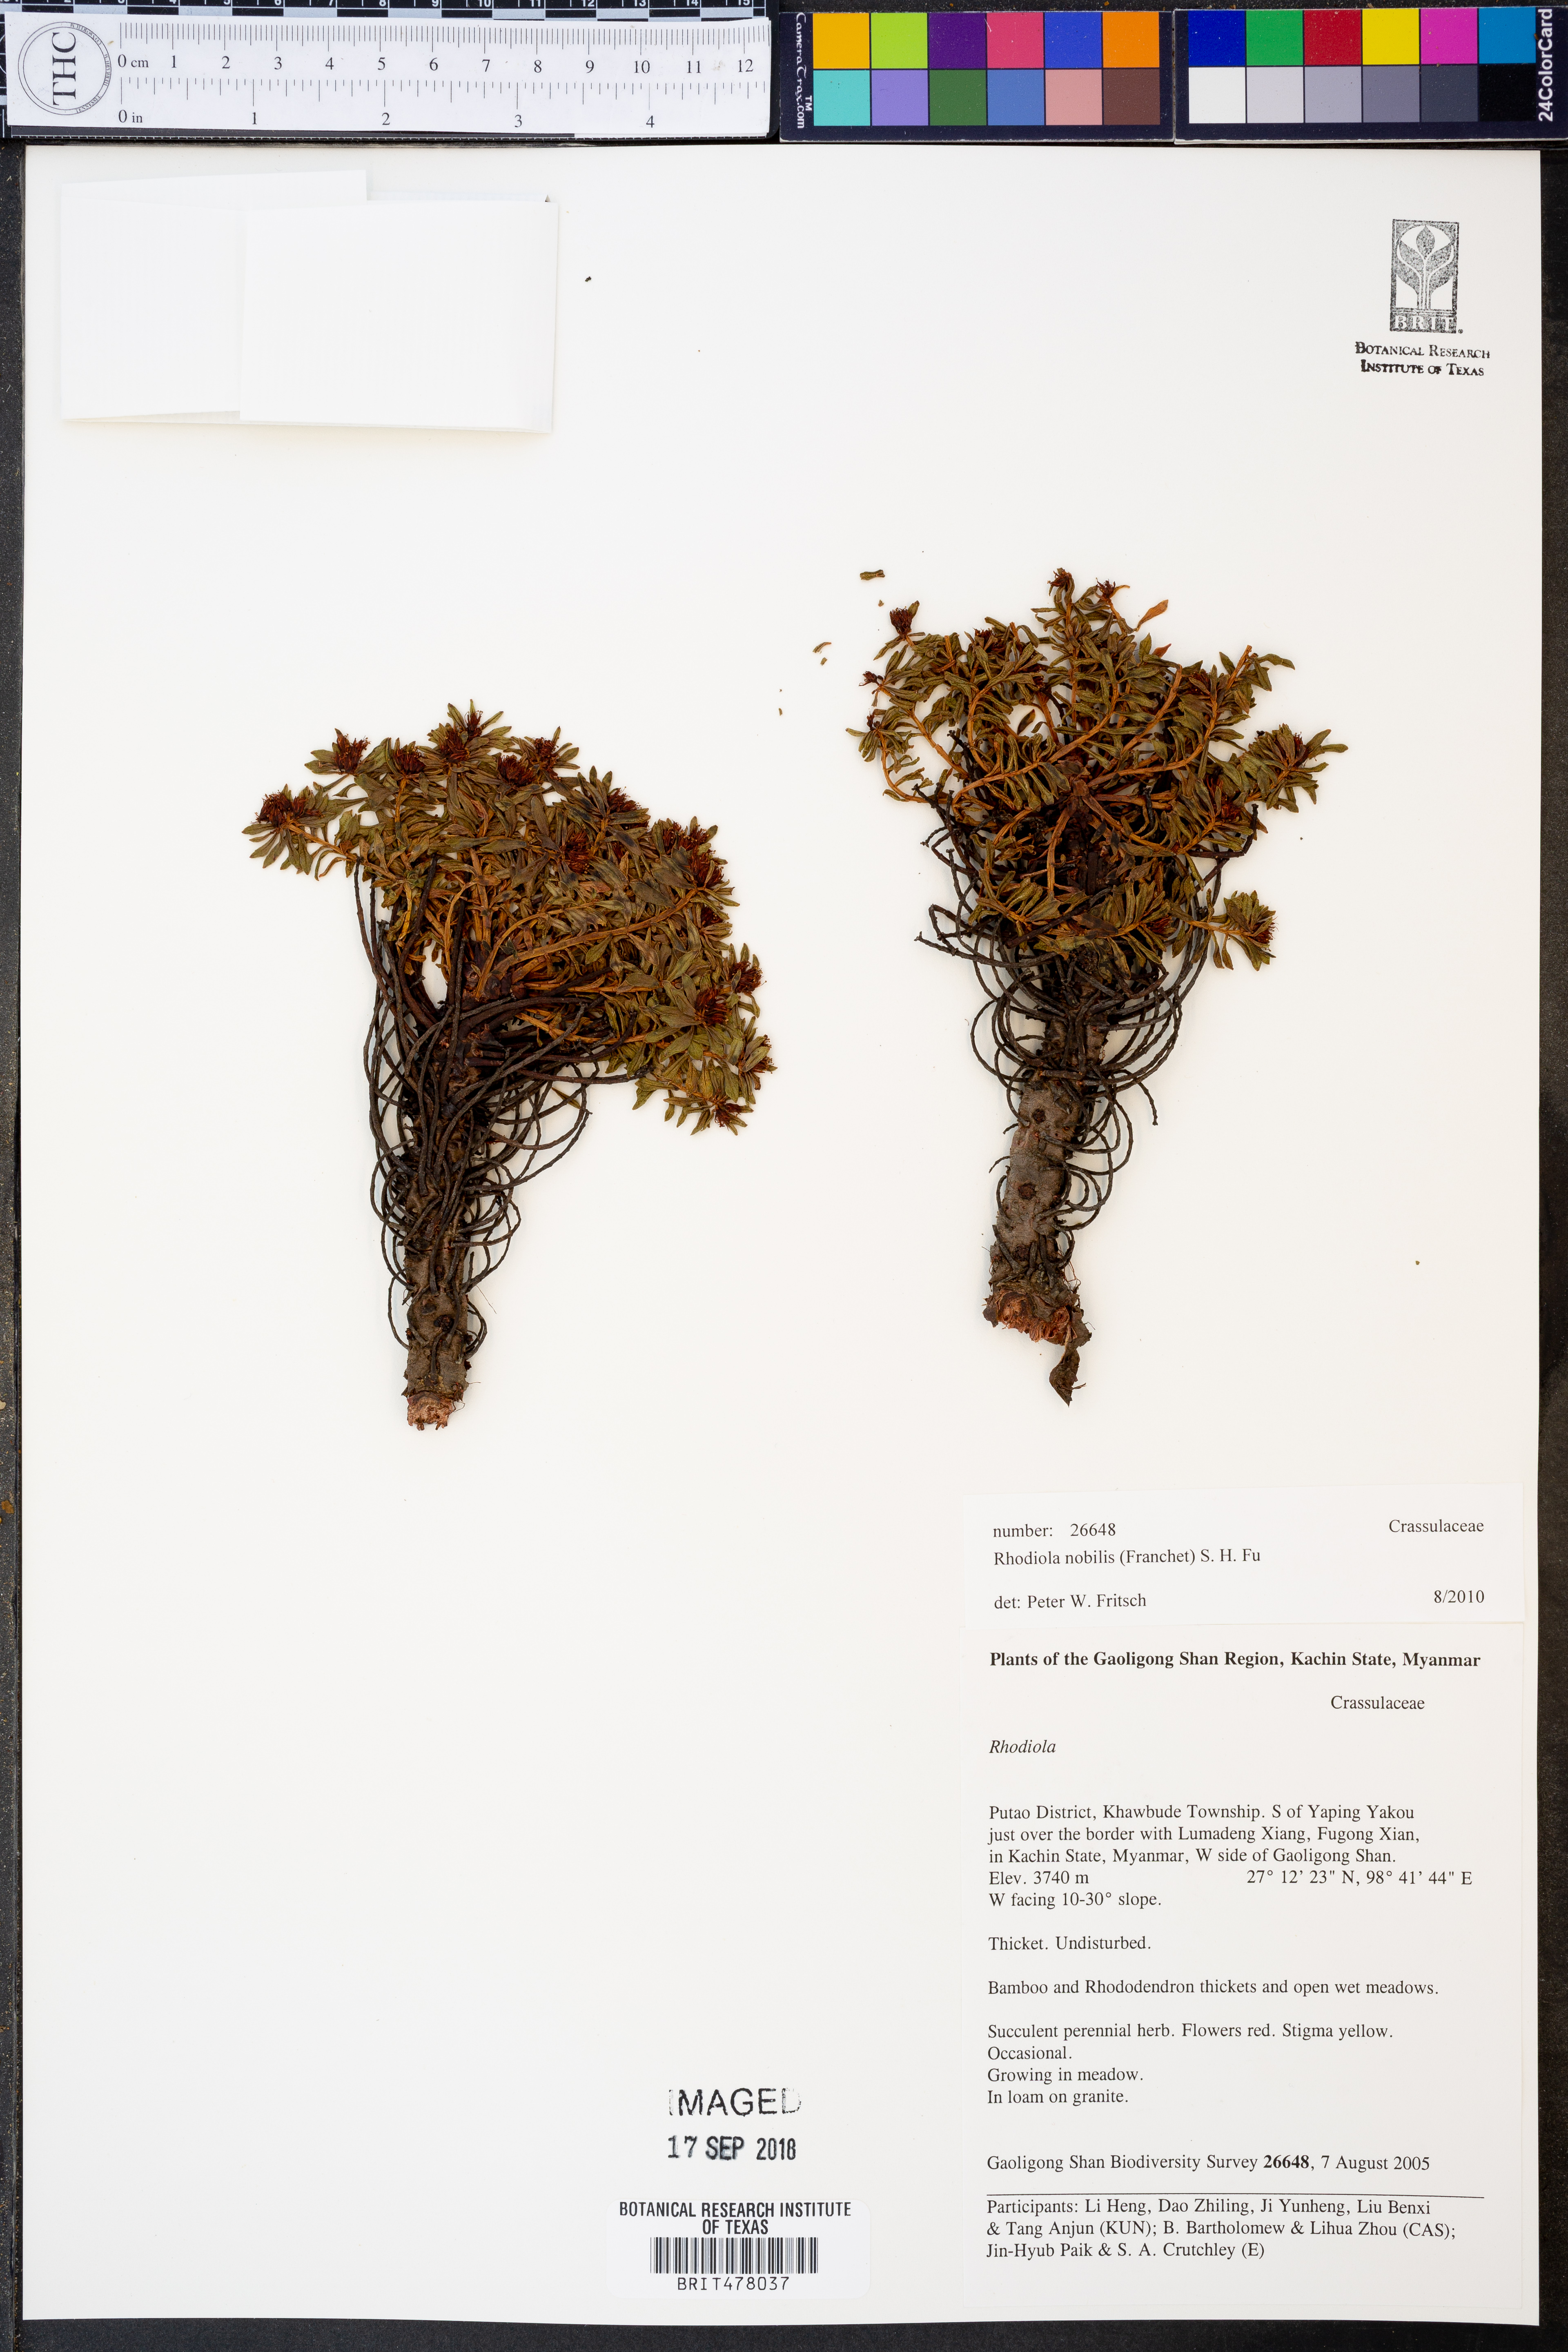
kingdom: Plantae
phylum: Tracheophyta
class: Magnoliopsida
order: Saxifragales
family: Crassulaceae
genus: Rhodiola
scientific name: Rhodiola nobilis
